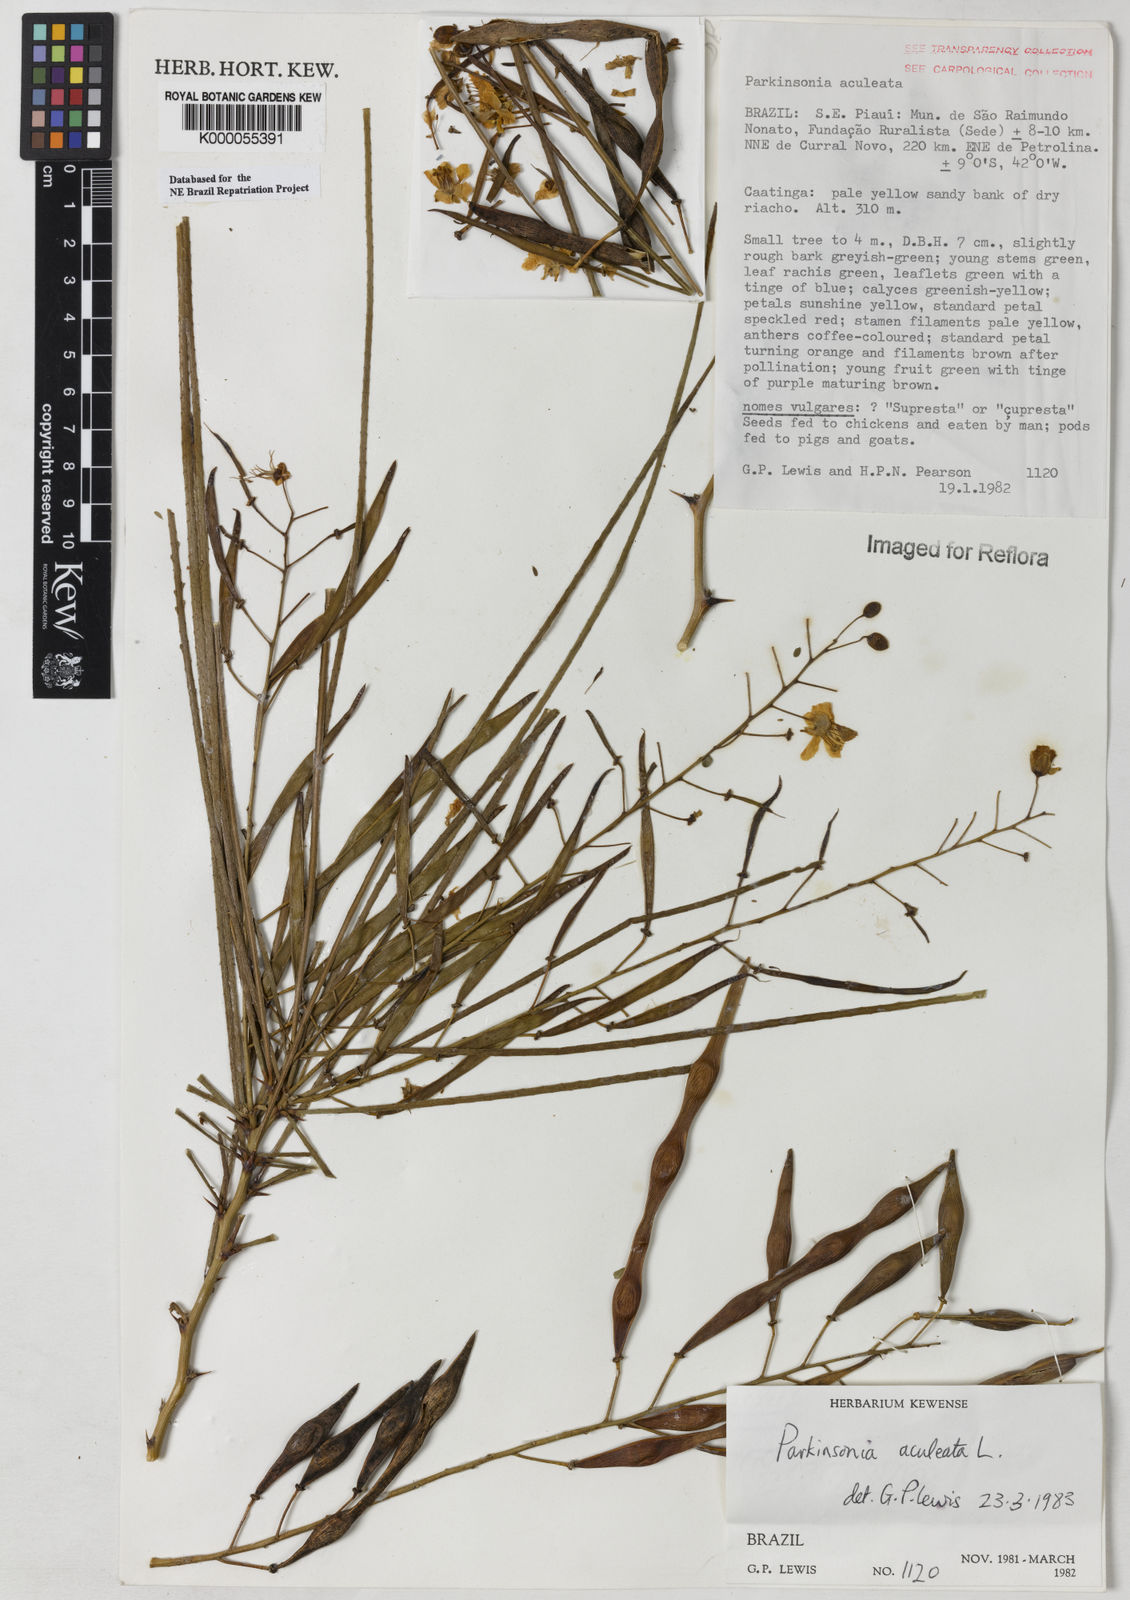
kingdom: Plantae
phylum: Tracheophyta
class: Magnoliopsida
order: Fabales
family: Fabaceae
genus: Parkinsonia
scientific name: Parkinsonia aculeata
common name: Jerusalem thorn
